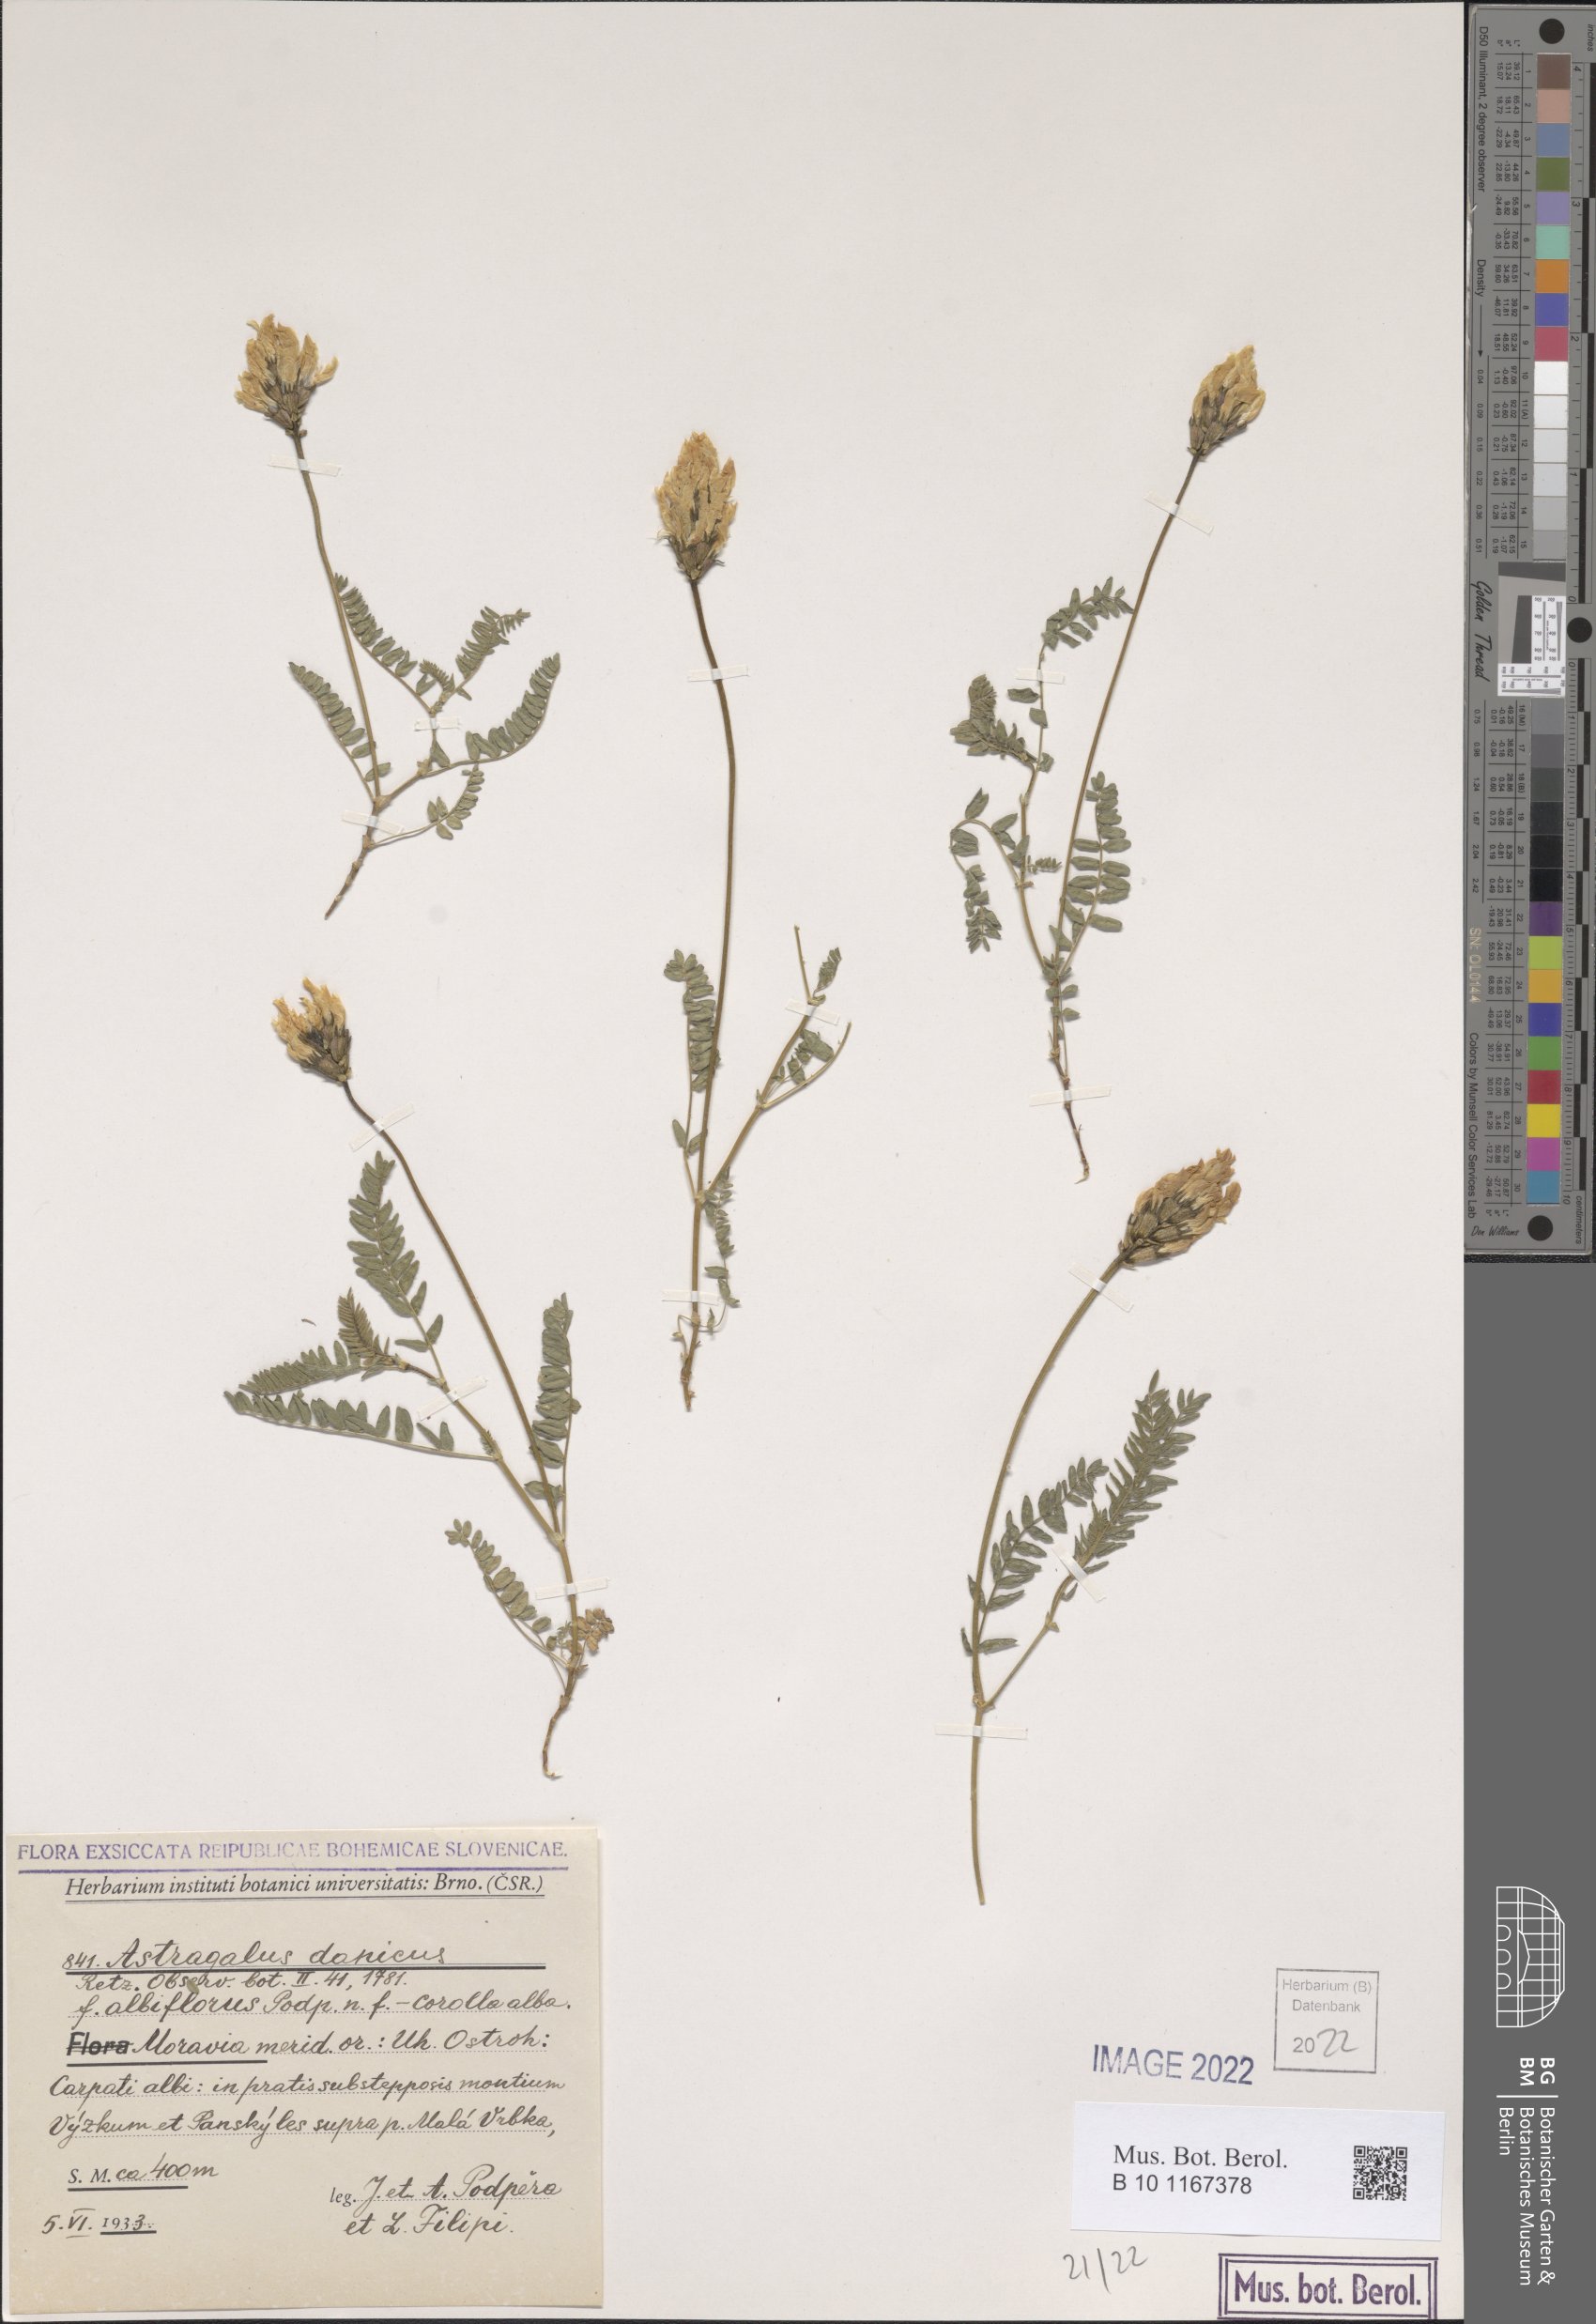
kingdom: Plantae
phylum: Tracheophyta
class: Magnoliopsida
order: Fabales
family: Fabaceae
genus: Astragalus
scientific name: Astragalus danicus
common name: Purple milk-vetch
